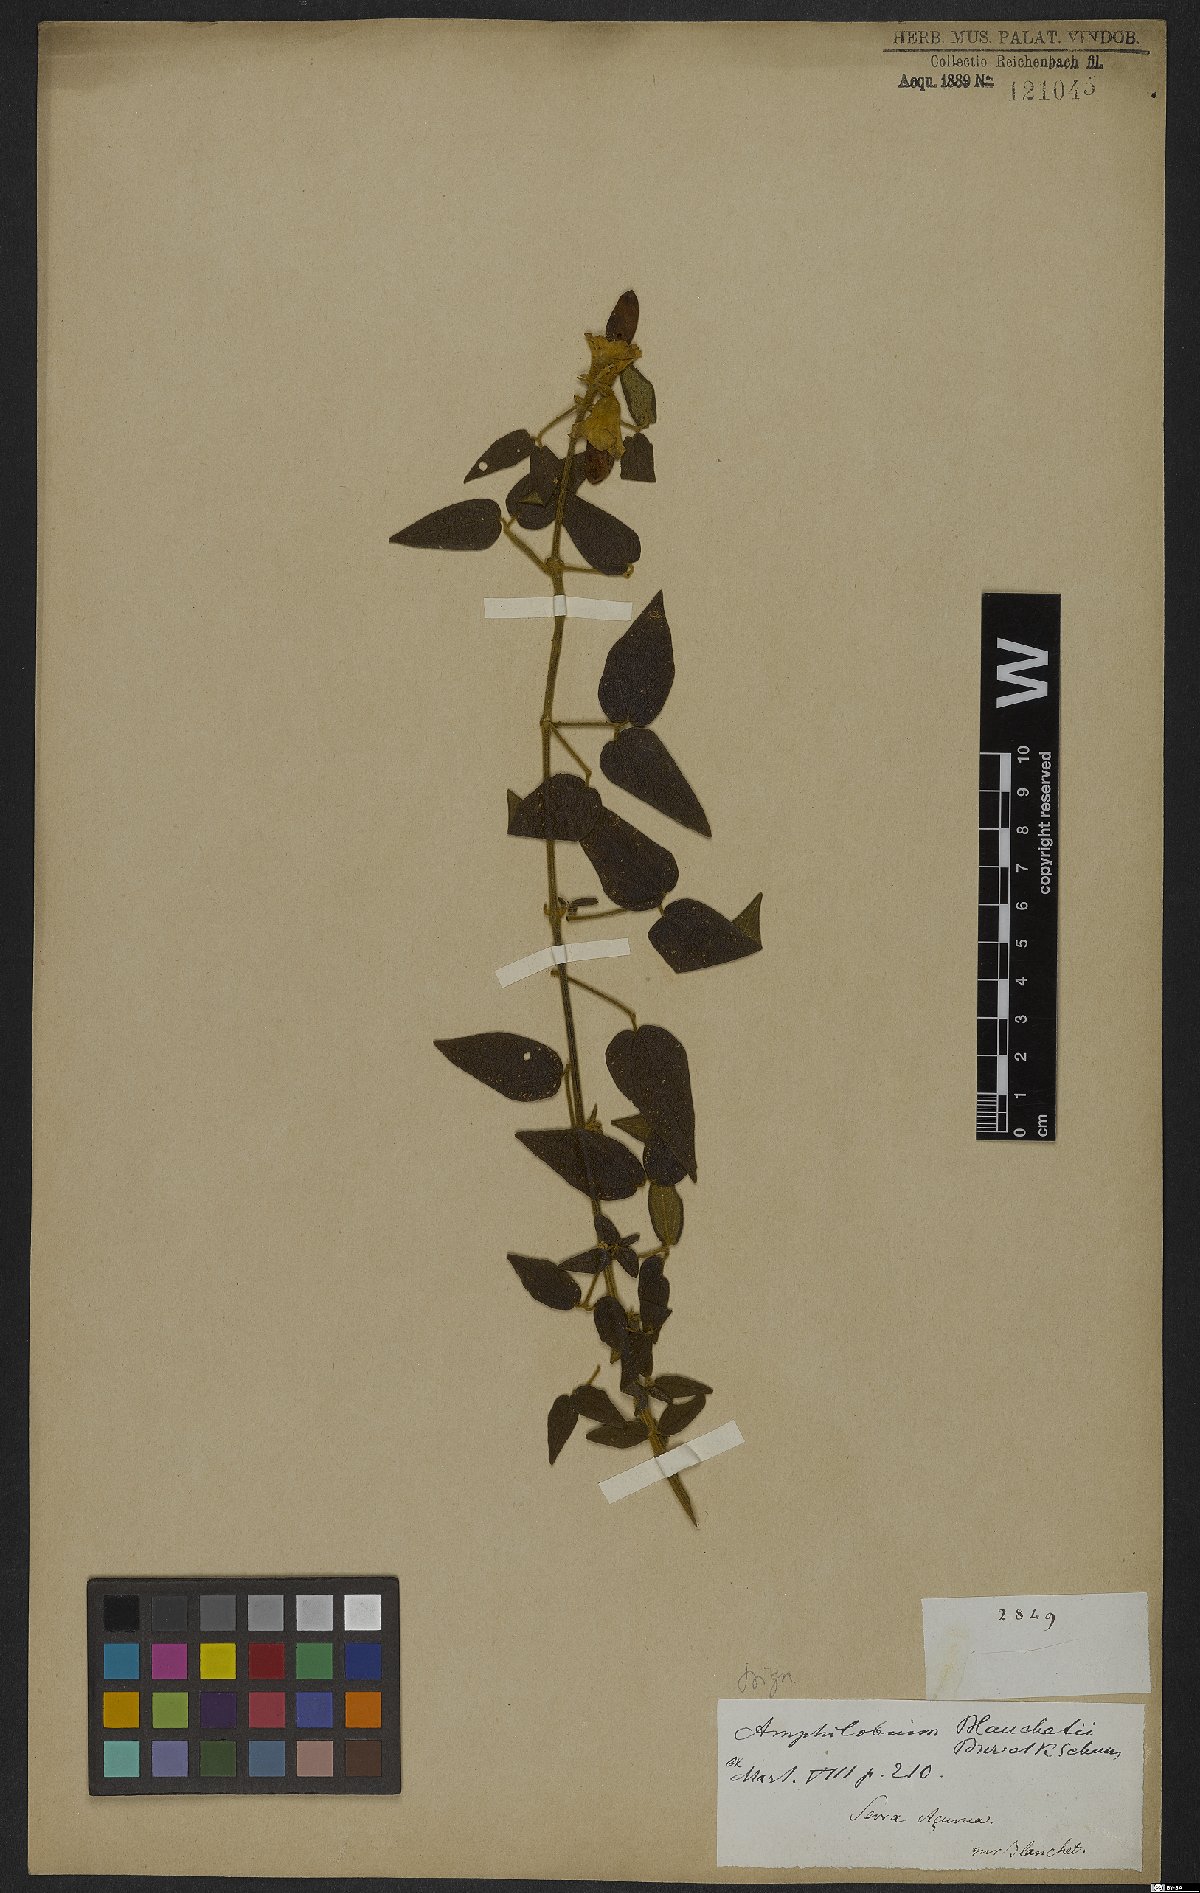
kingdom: Plantae
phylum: Tracheophyta
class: Magnoliopsida
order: Lamiales
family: Bignoniaceae
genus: Amphilophium
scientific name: Amphilophium blanchetii
